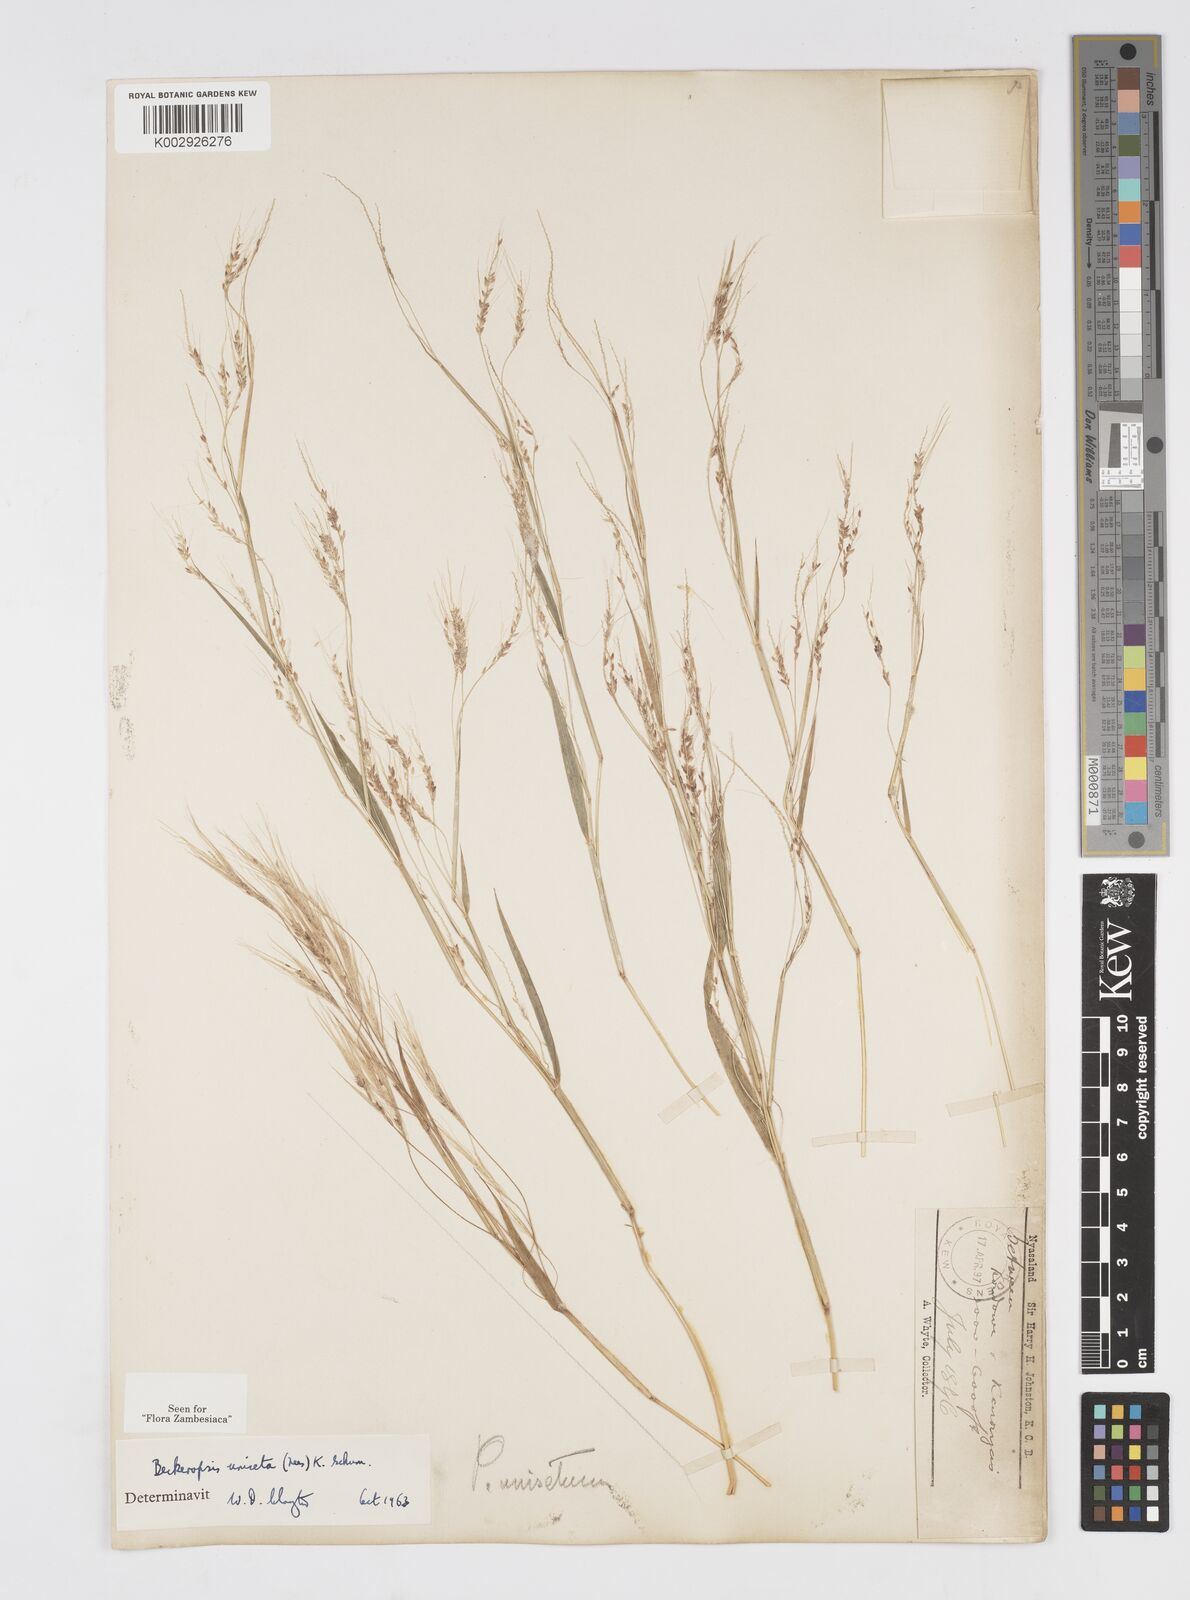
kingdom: Plantae
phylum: Tracheophyta
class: Liliopsida
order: Poales
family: Poaceae
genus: Cenchrus
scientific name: Cenchrus unisetus
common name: Natal grass
